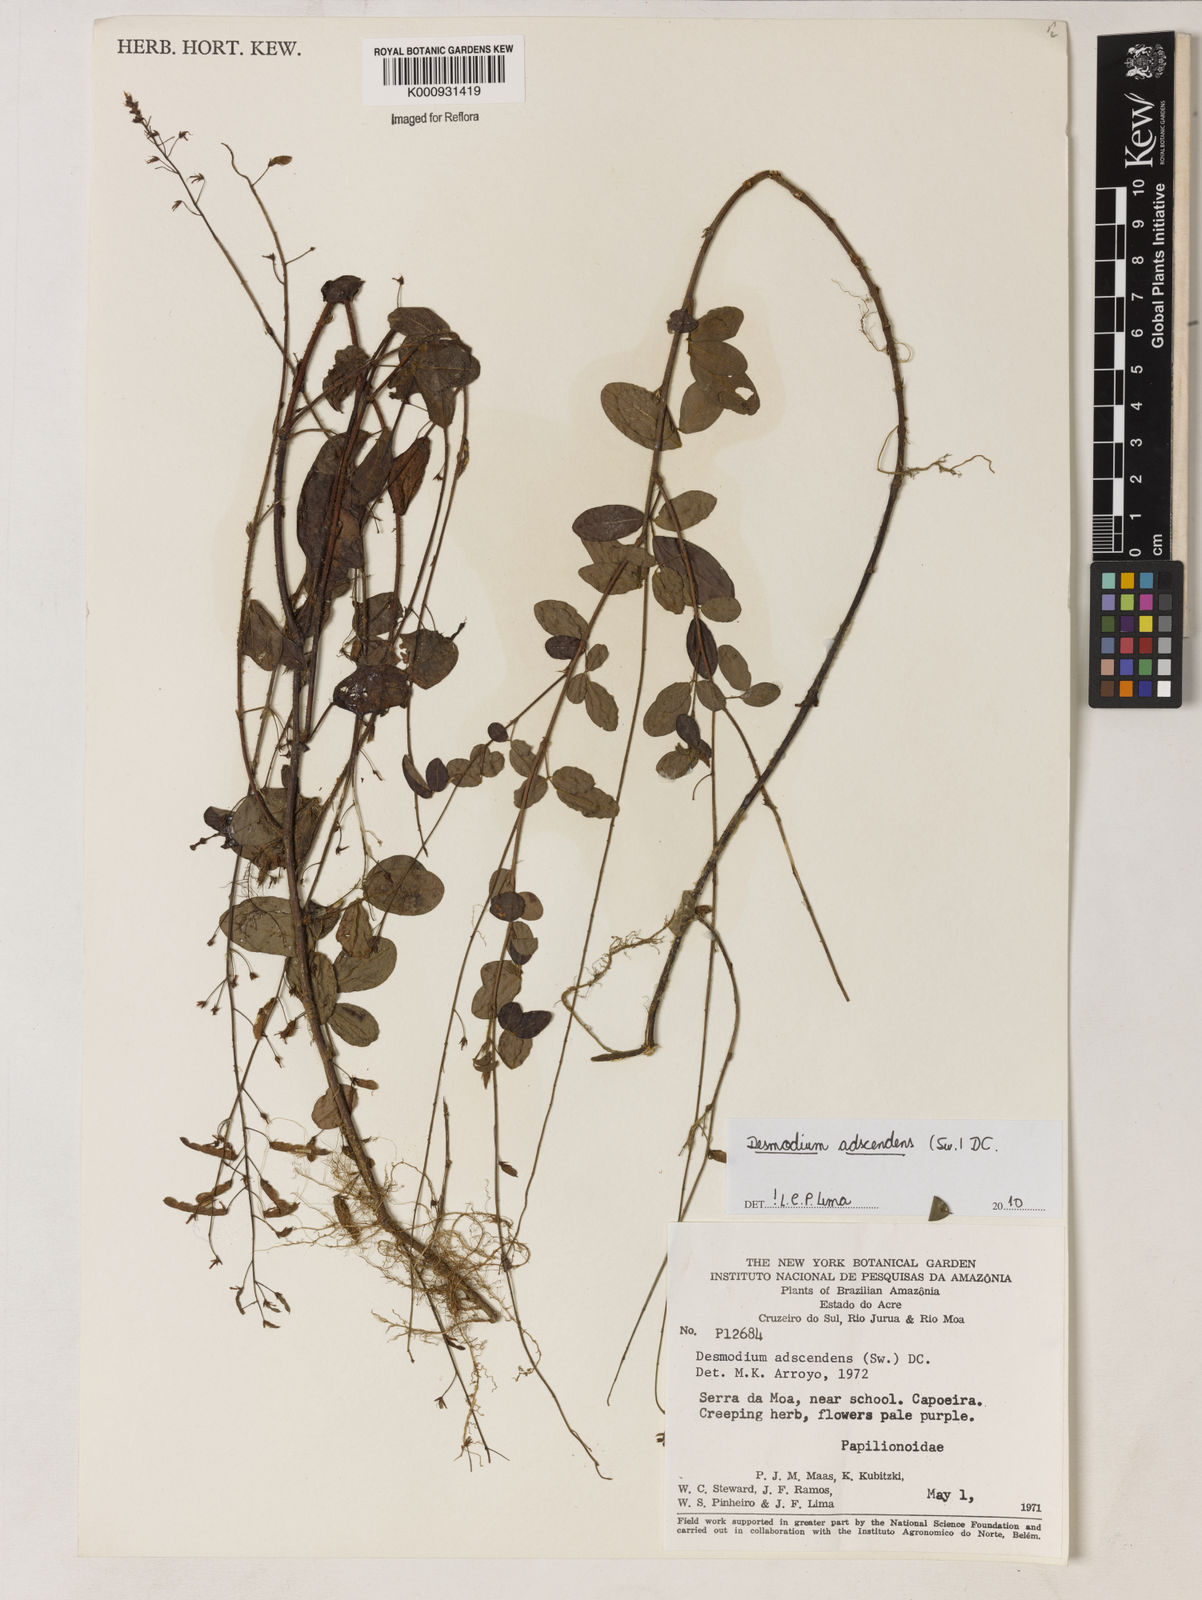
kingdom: Plantae
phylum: Tracheophyta
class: Magnoliopsida
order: Fabales
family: Fabaceae
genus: Grona
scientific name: Grona adscendens
